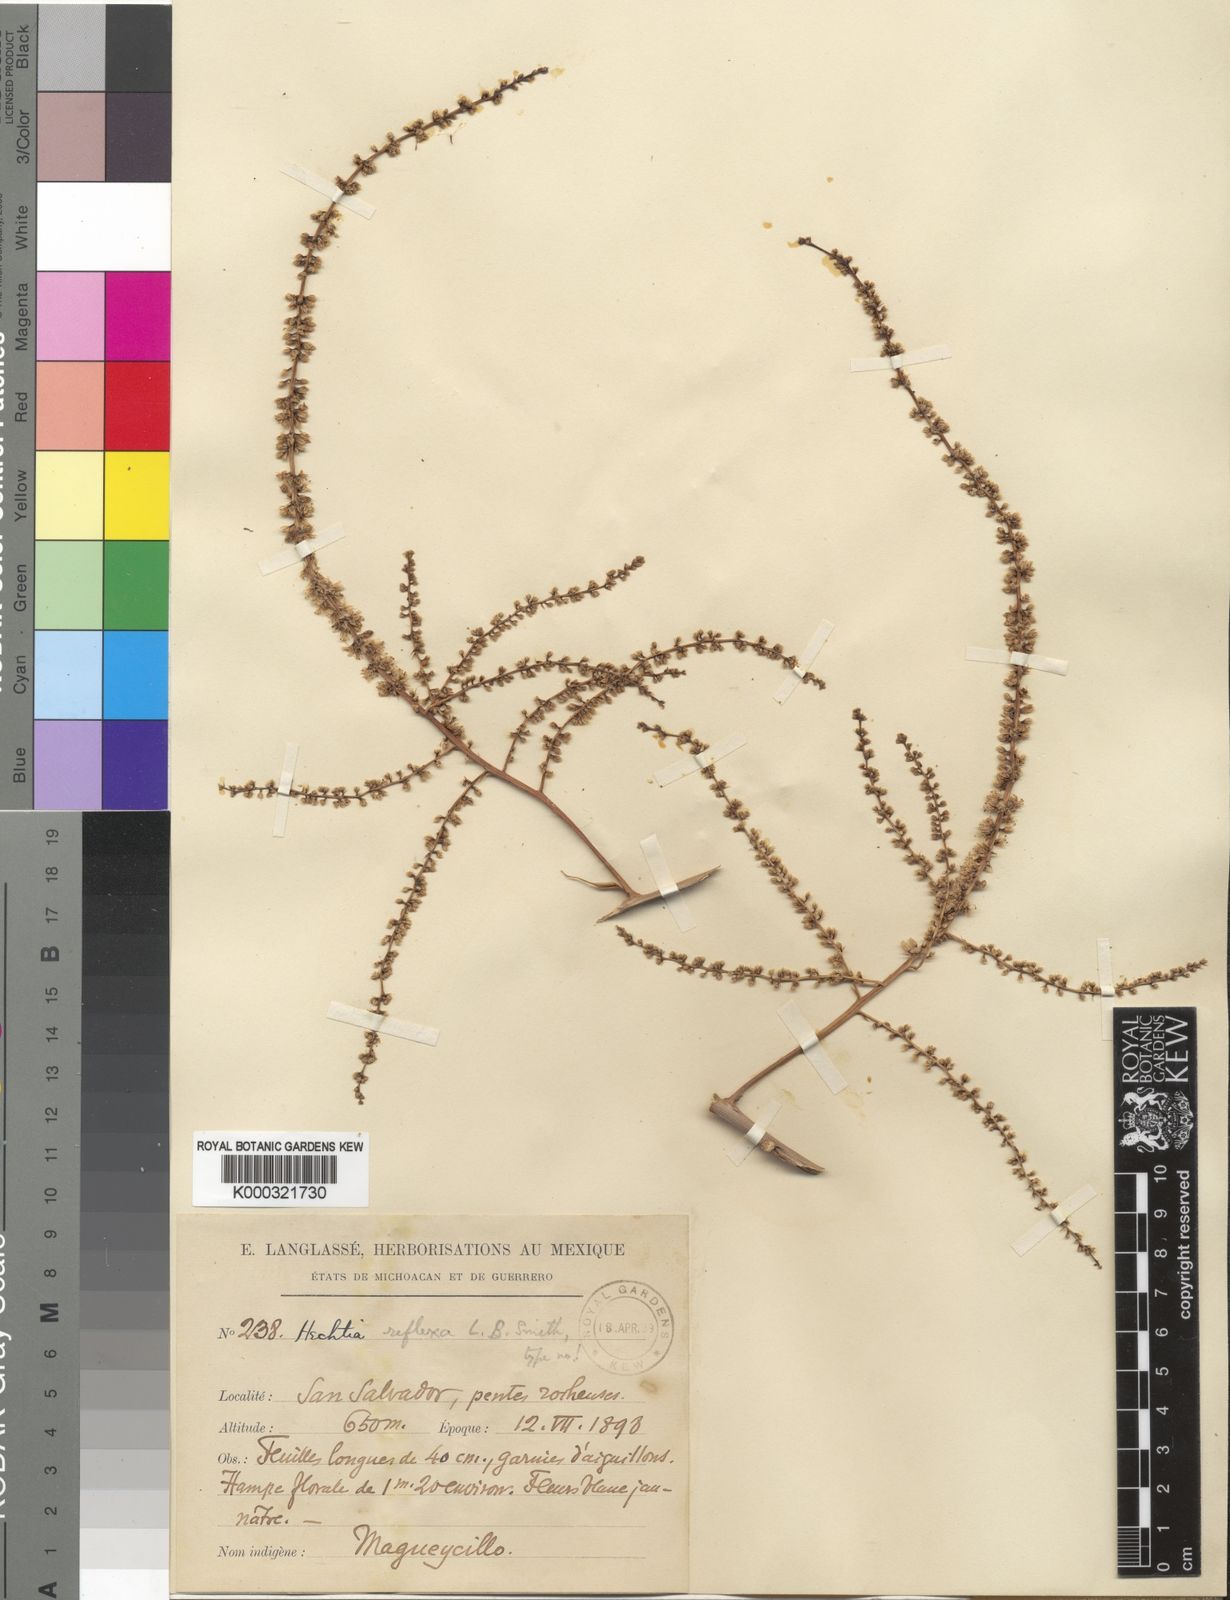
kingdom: Plantae
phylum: Tracheophyta
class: Liliopsida
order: Poales
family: Bromeliaceae
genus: Hechtia
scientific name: Hechtia reflexa
